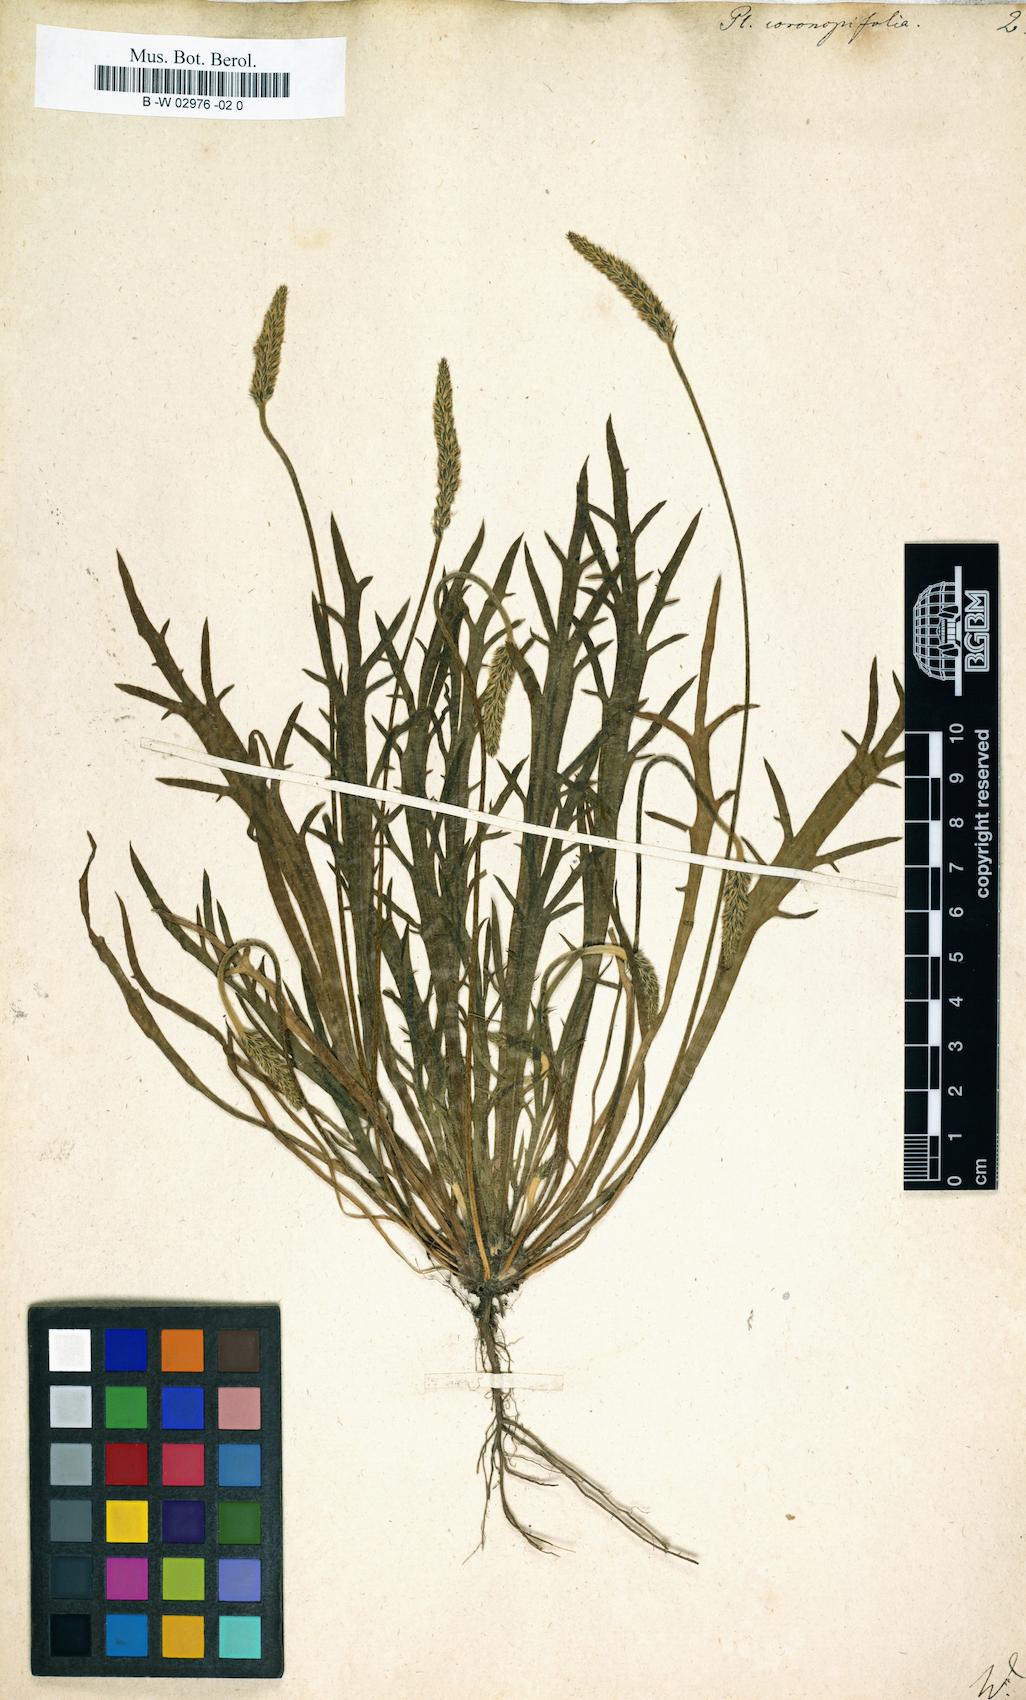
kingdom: Plantae
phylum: Tracheophyta
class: Magnoliopsida
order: Lamiales
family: Plantaginaceae
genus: Plantago
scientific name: Plantago
